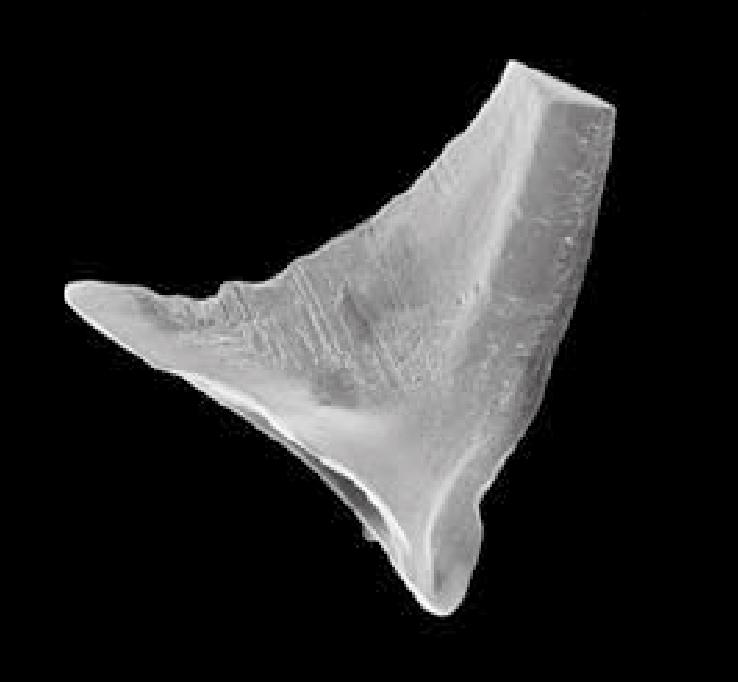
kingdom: Animalia
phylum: Chordata
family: Protopanderodontidae
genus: Juanognathus
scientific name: Juanognathus
